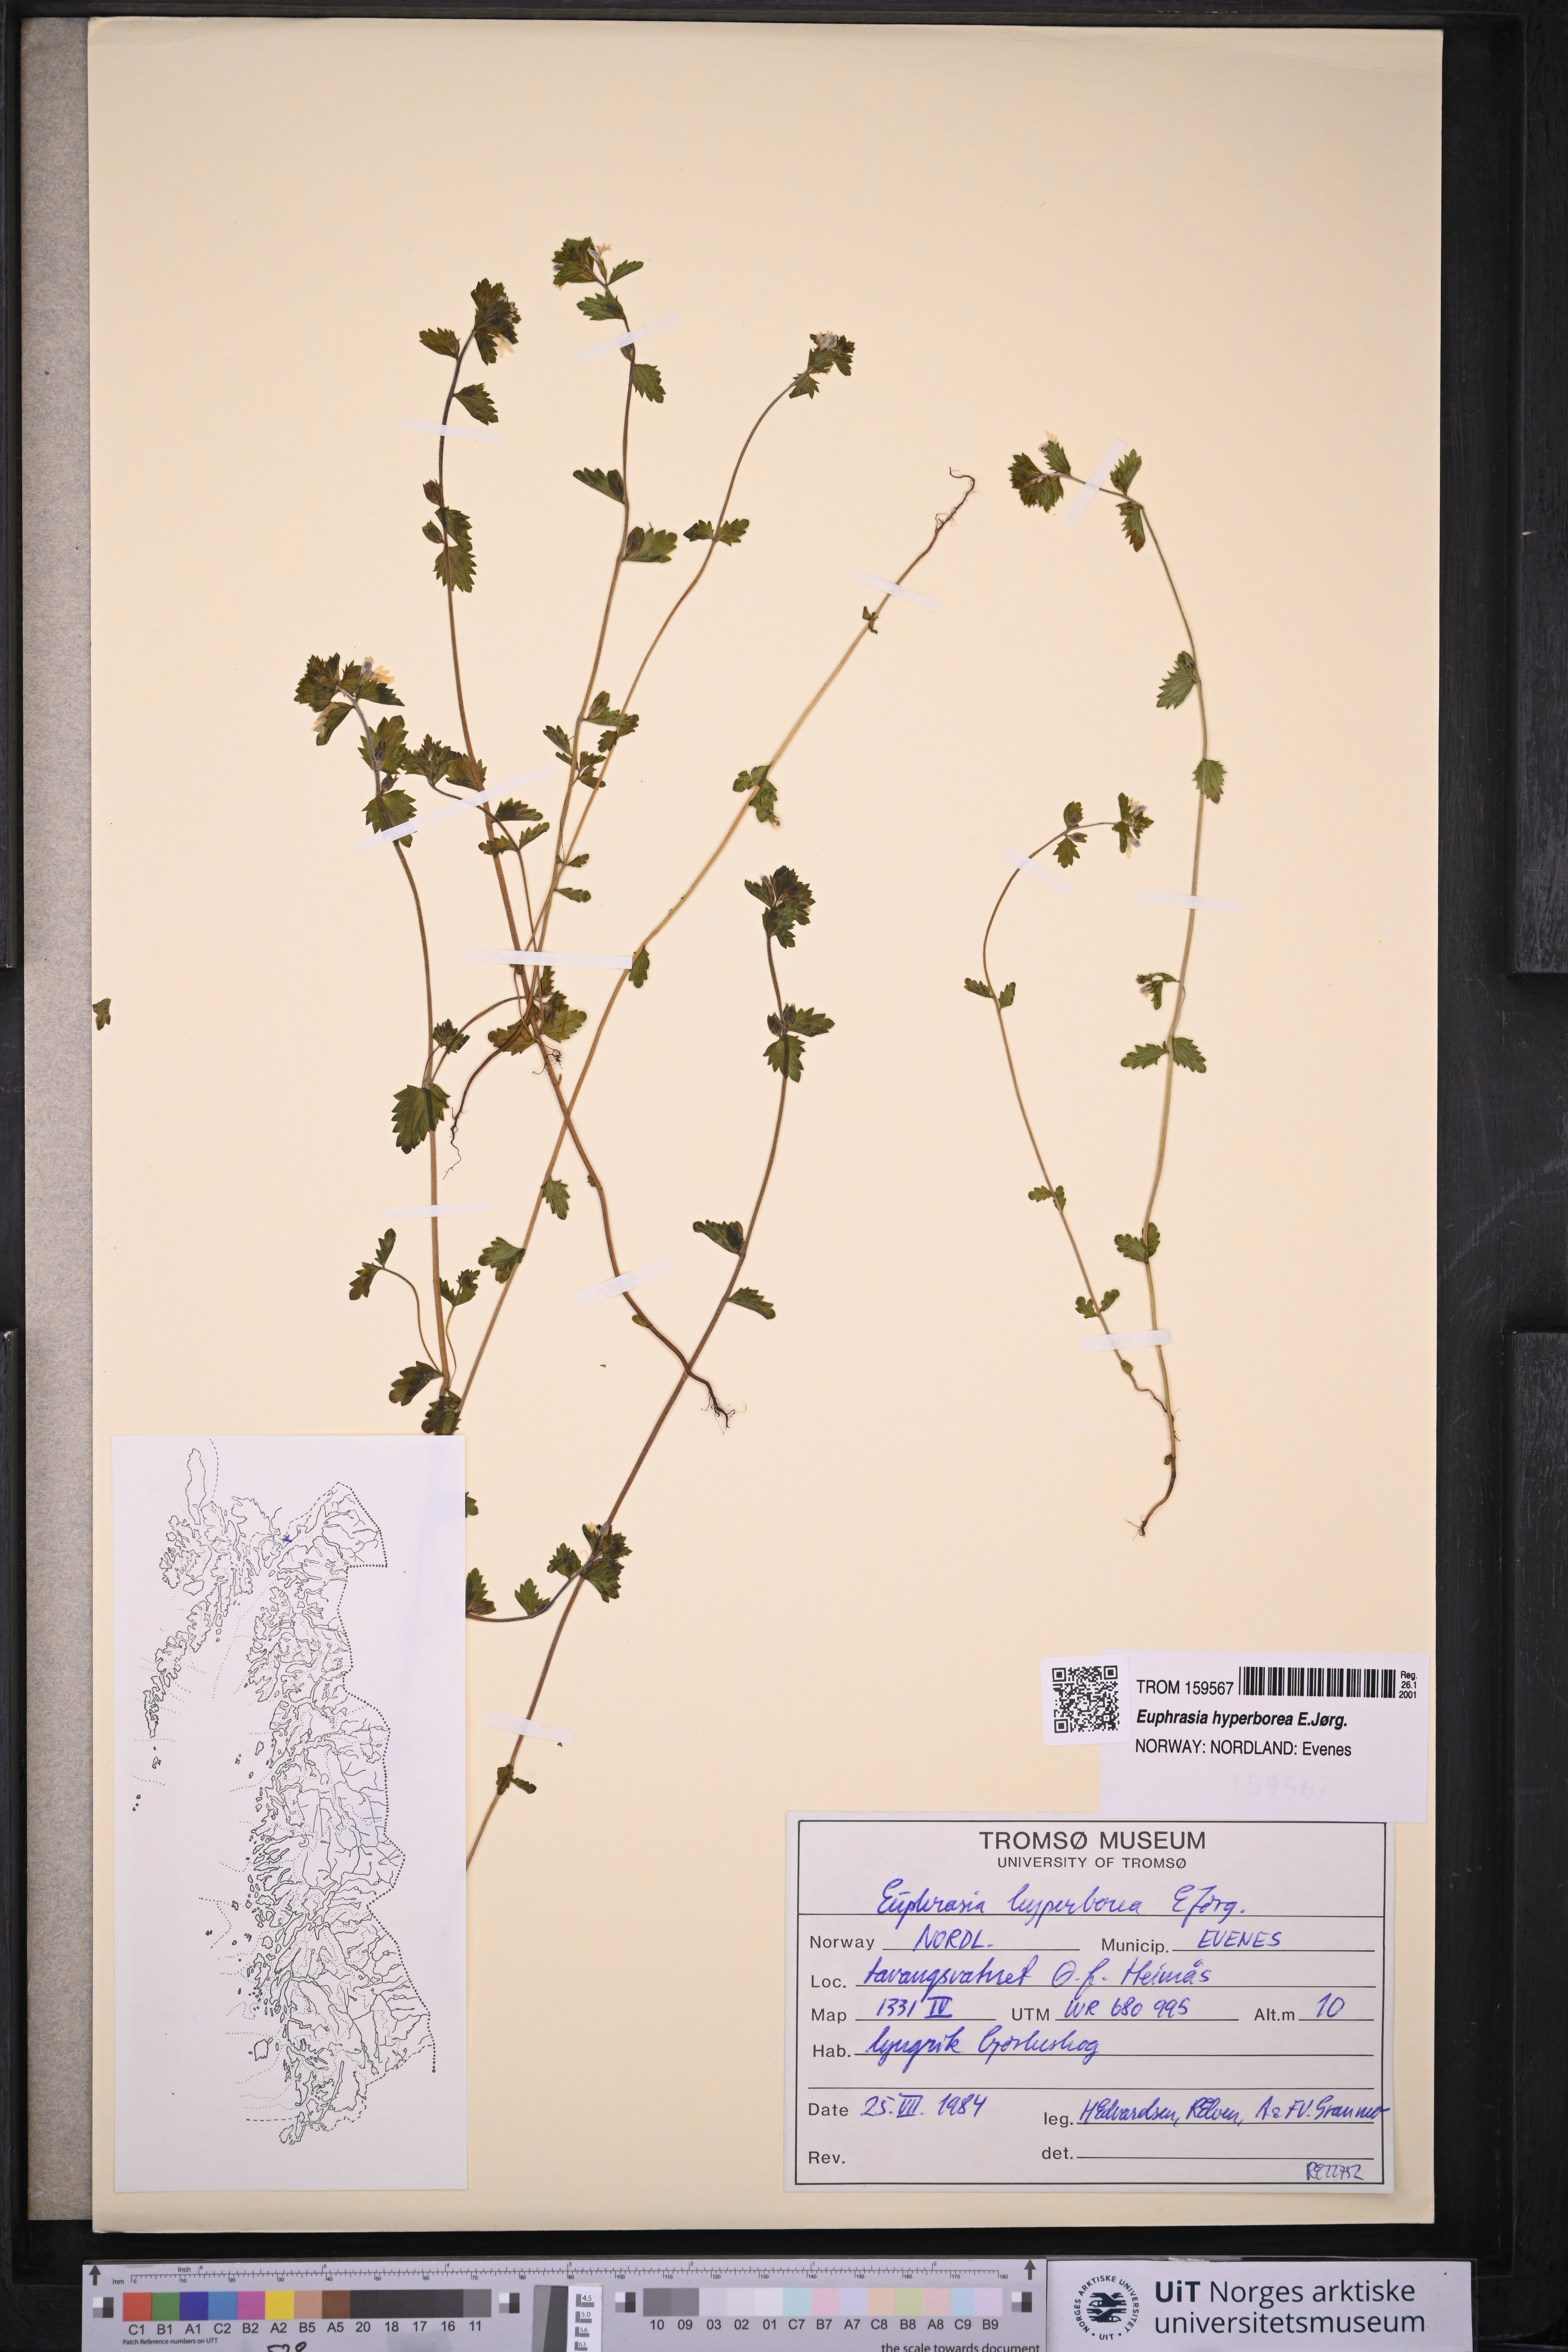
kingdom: Plantae
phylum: Tracheophyta
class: Magnoliopsida
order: Lamiales
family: Orobanchaceae
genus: Euphrasia
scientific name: Euphrasia hyperborea
